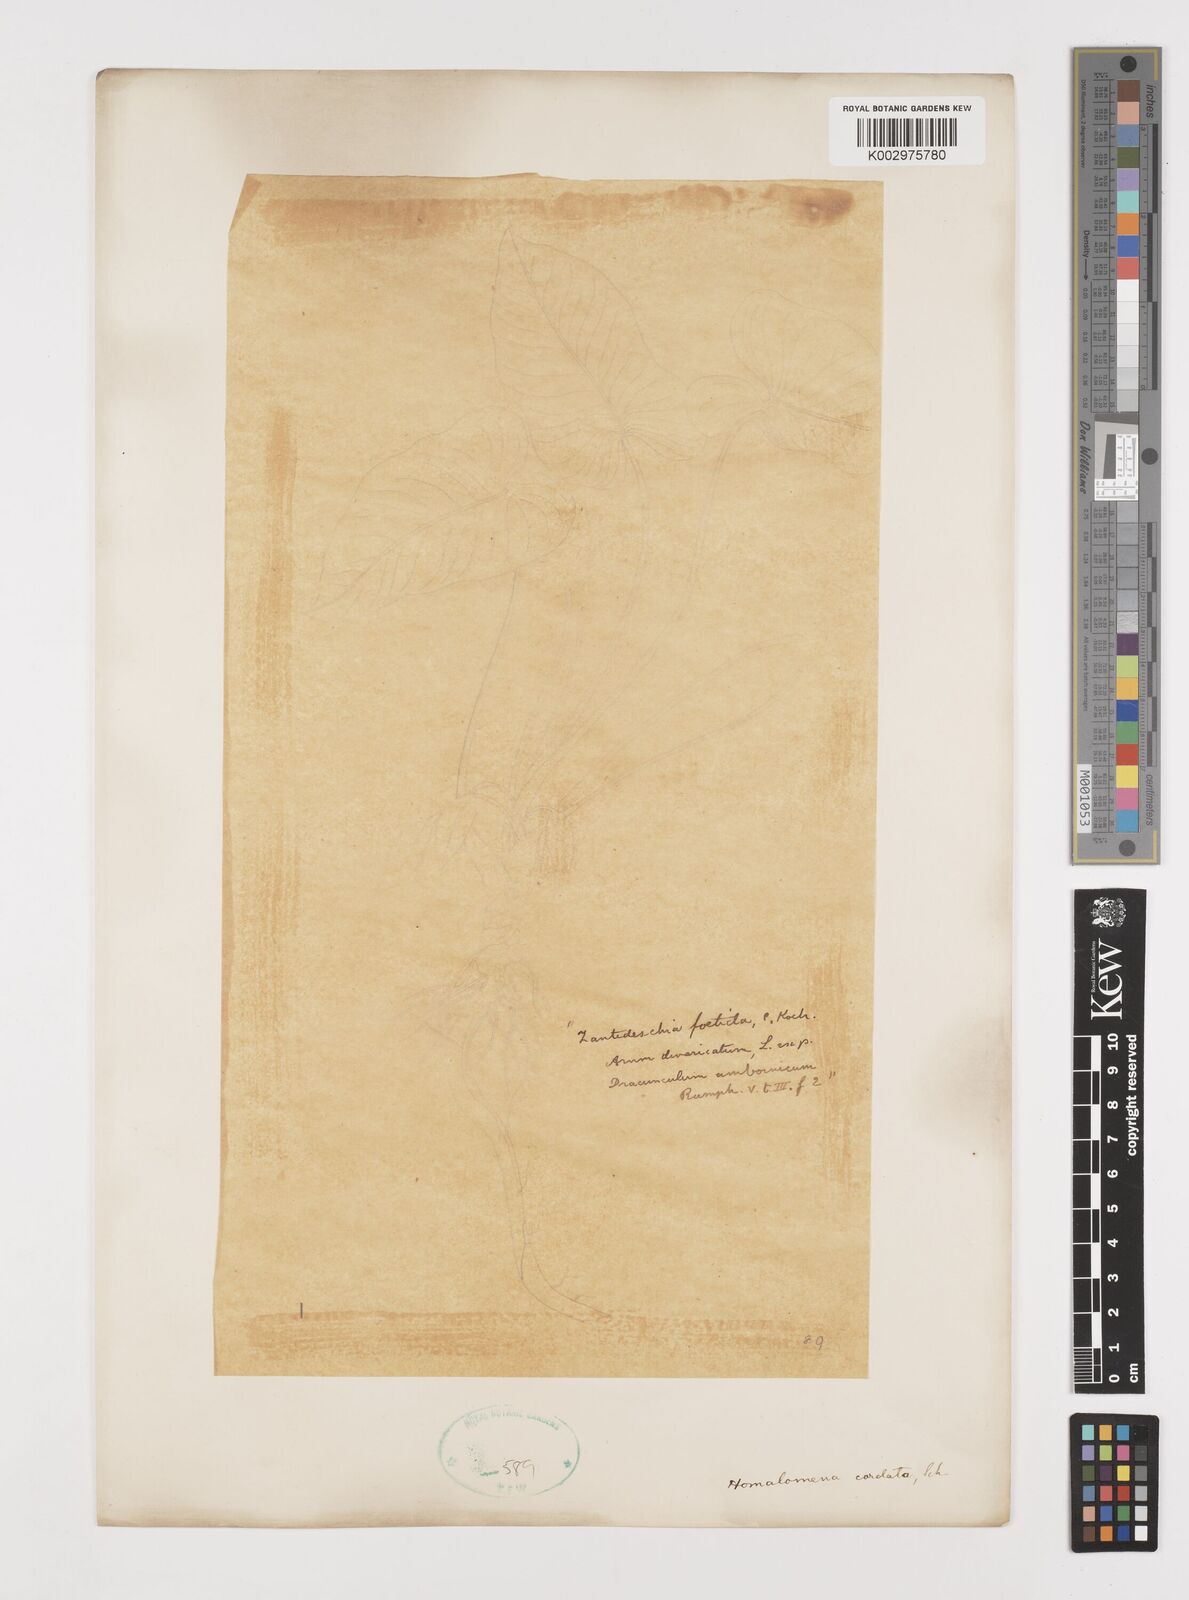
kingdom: Plantae
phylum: Tracheophyta
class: Liliopsida
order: Alismatales
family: Araceae
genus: Homalomena
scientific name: Homalomena cordata
